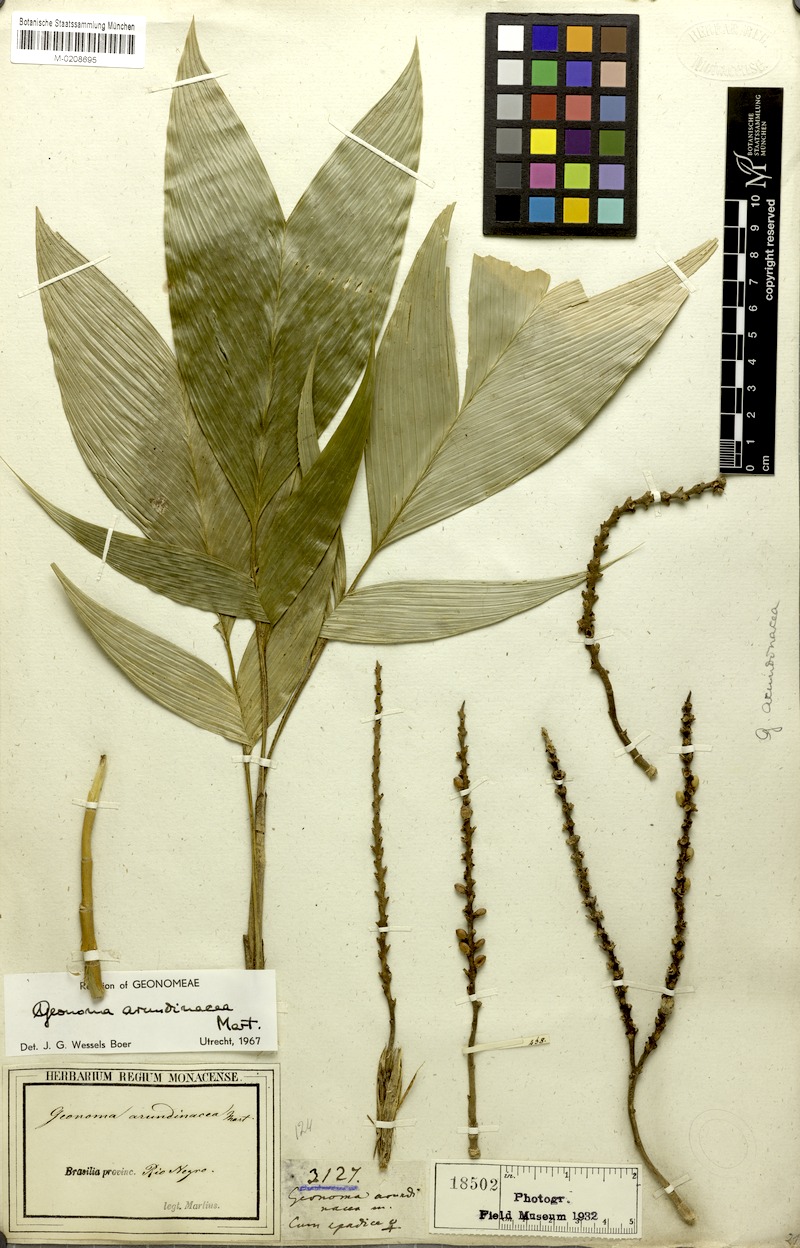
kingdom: Plantae
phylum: Tracheophyta
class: Liliopsida
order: Arecales
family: Arecaceae
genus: Geonoma
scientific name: Geonoma stricta
